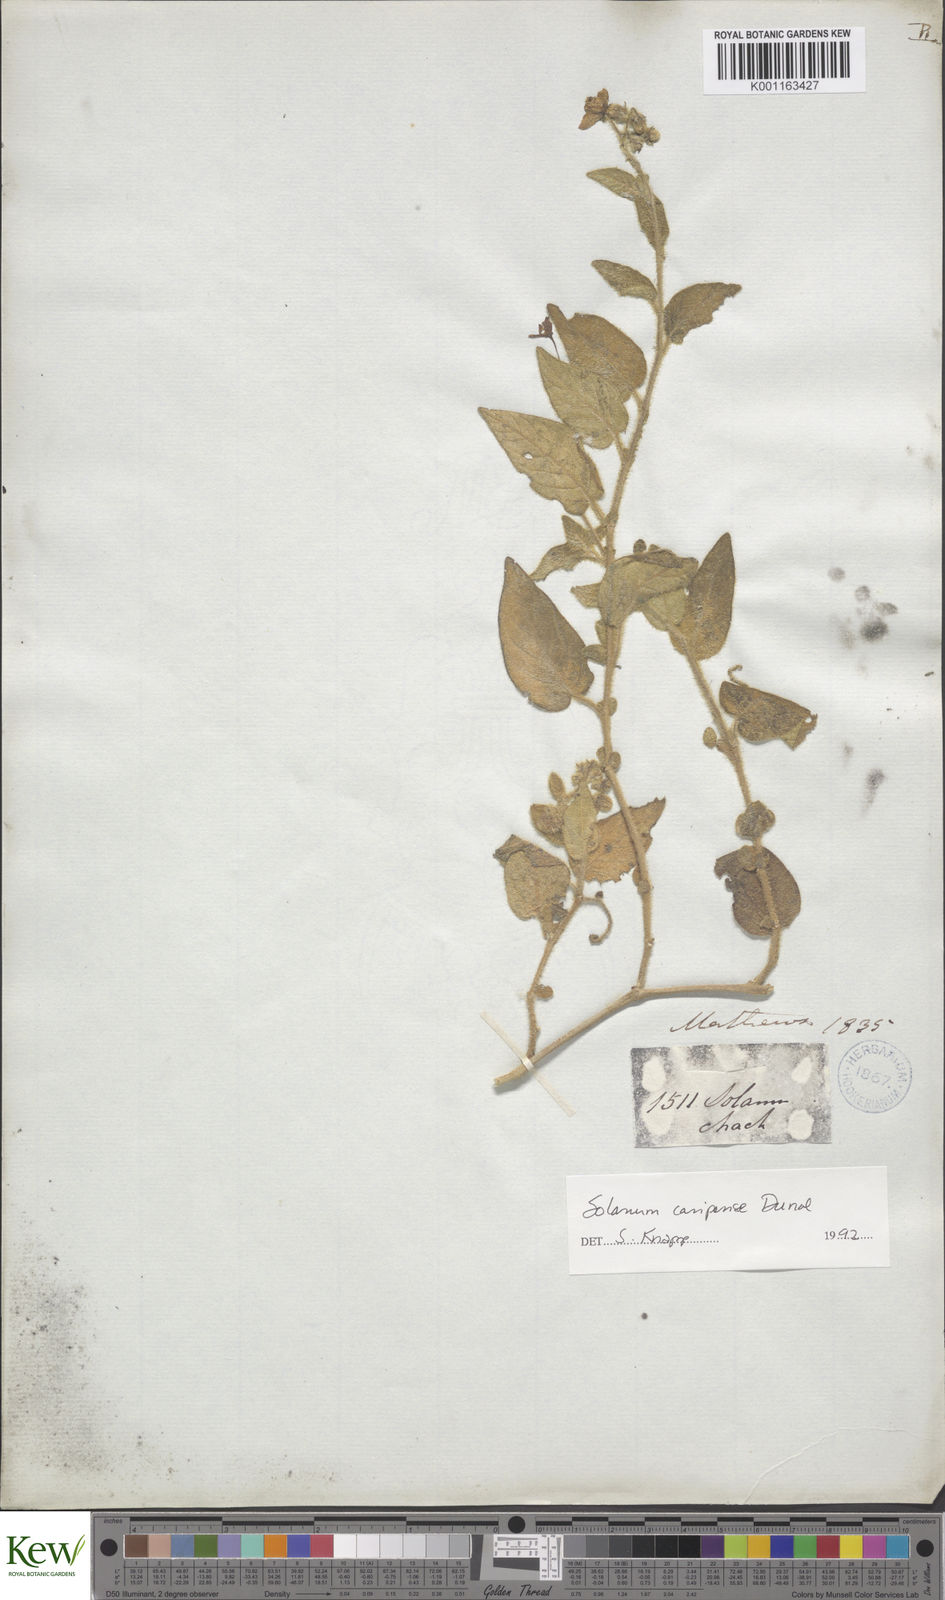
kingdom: Plantae
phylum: Tracheophyta
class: Magnoliopsida
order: Solanales
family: Solanaceae
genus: Solanum
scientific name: Solanum caripense
